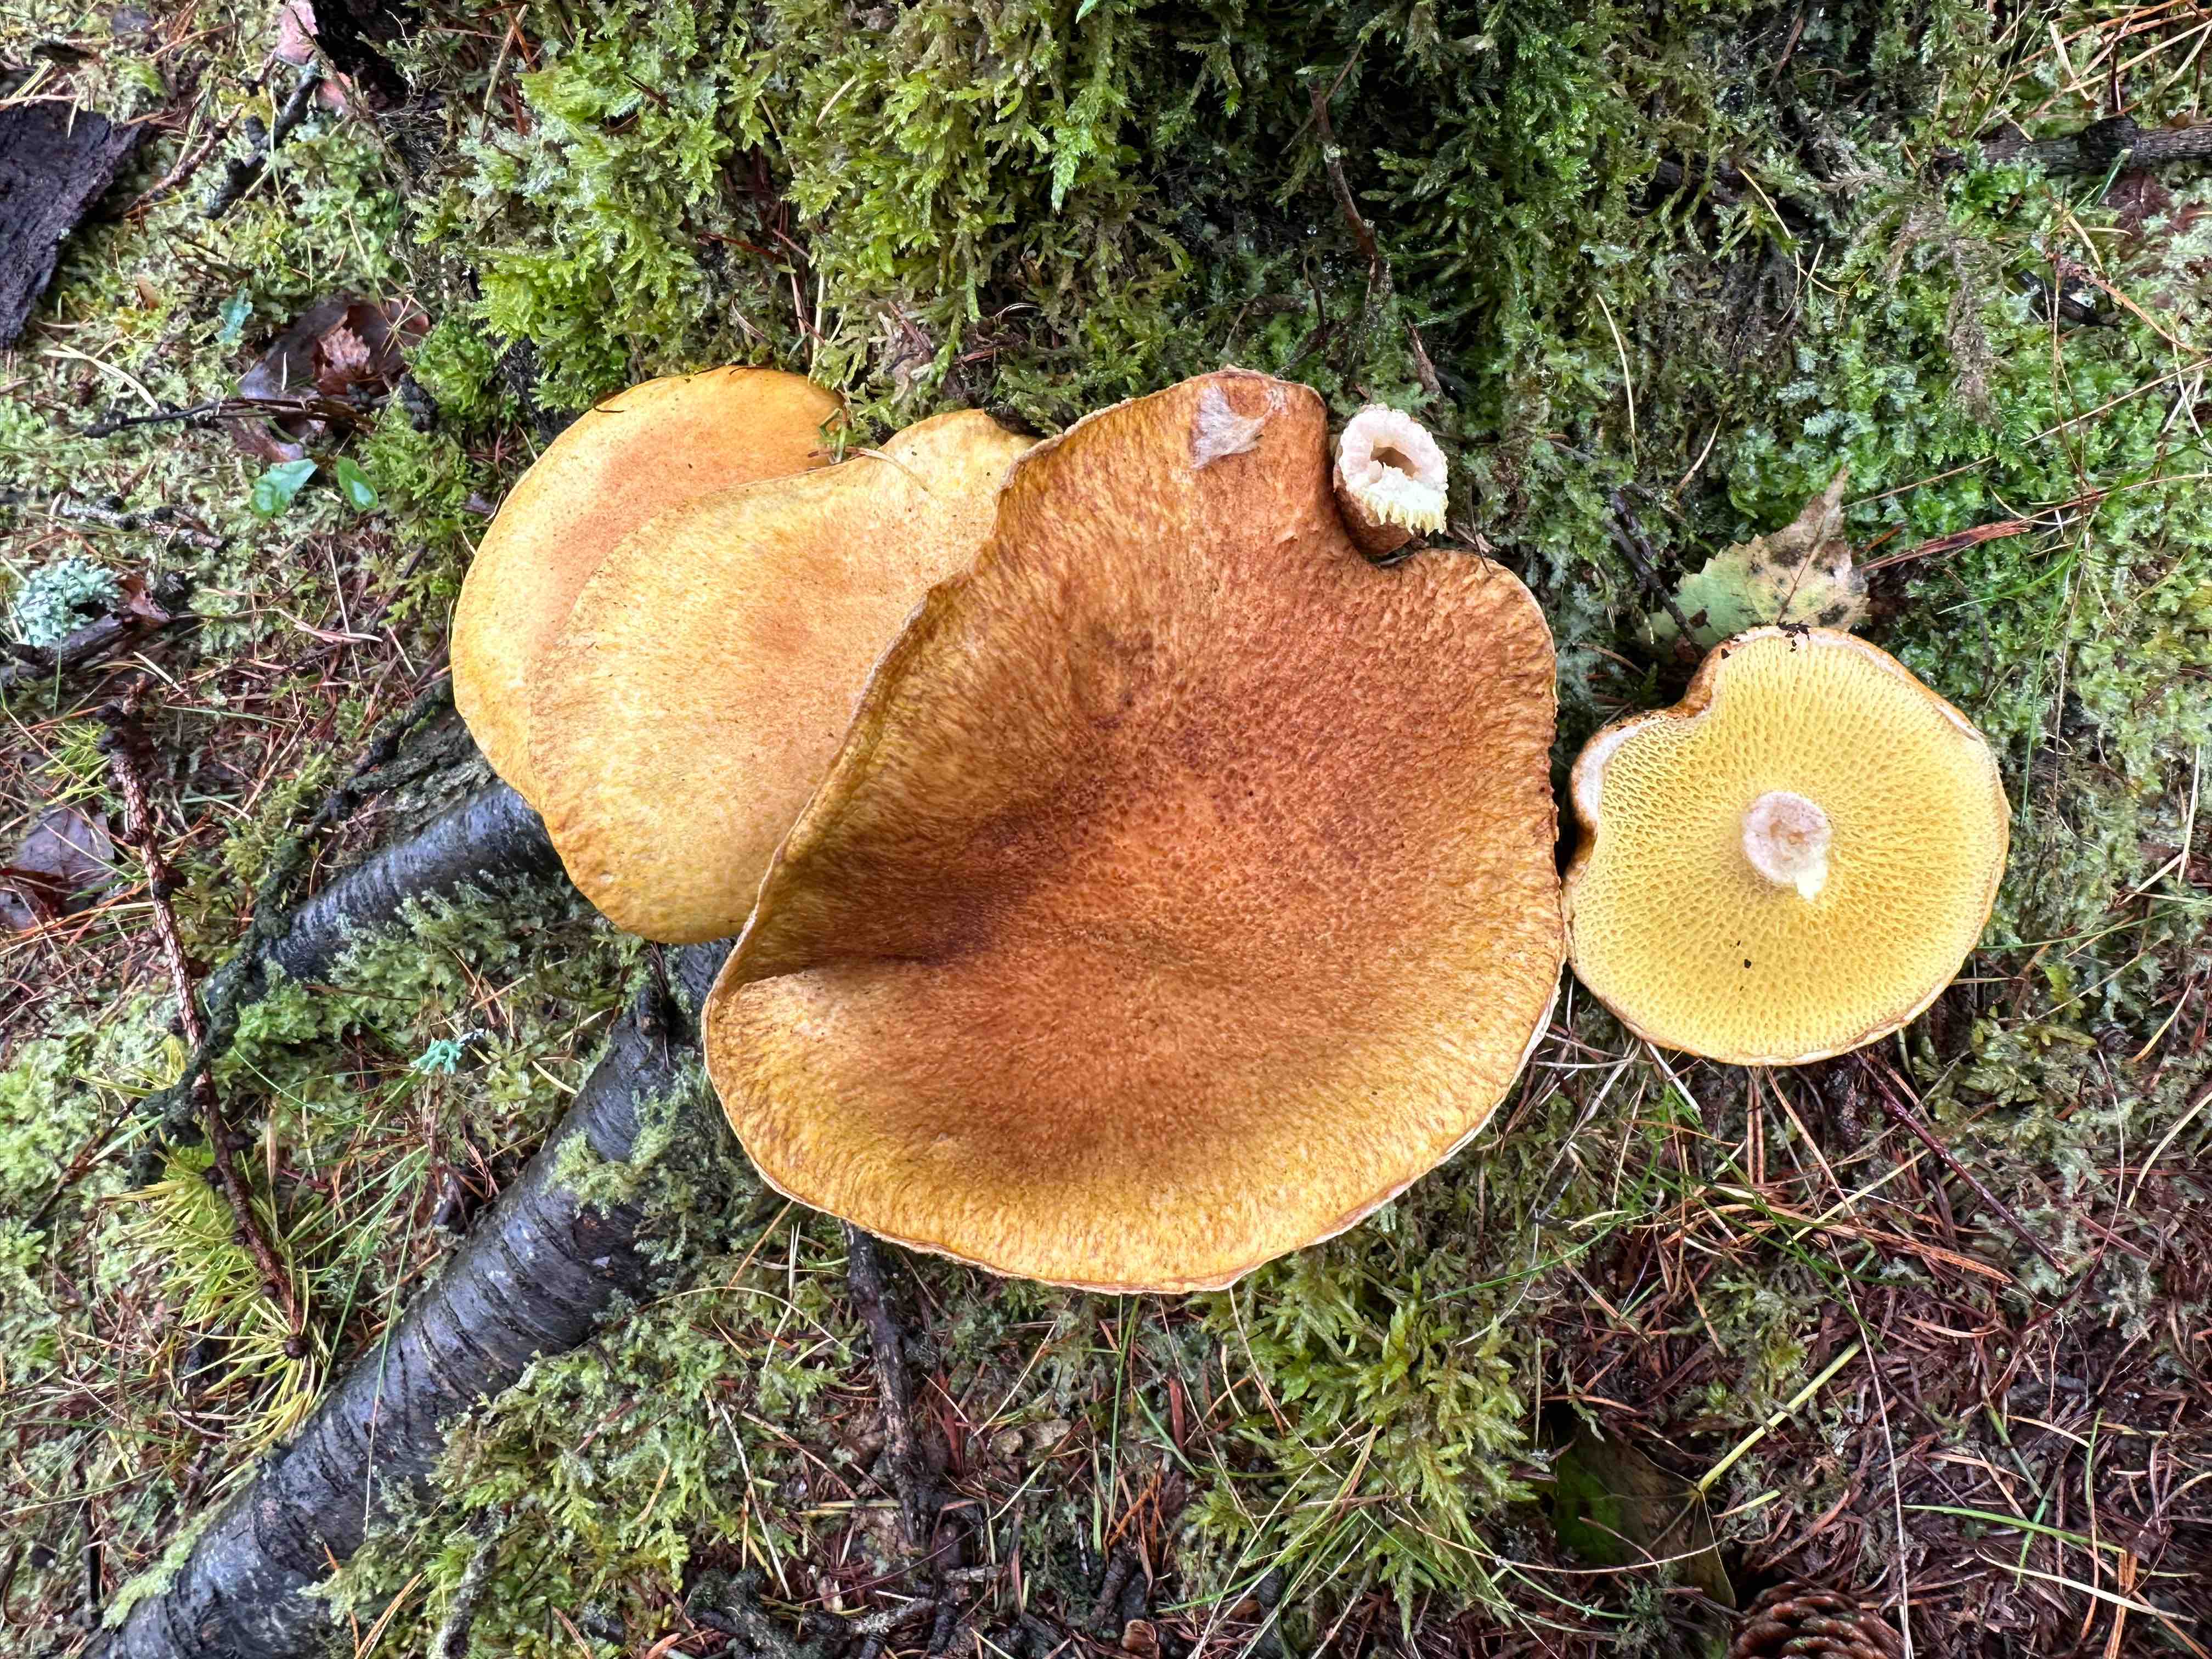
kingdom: Fungi
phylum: Basidiomycota
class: Agaricomycetes
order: Boletales
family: Suillaceae
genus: Suillus
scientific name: Suillus cavipes
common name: hulstokket slimrørhat
